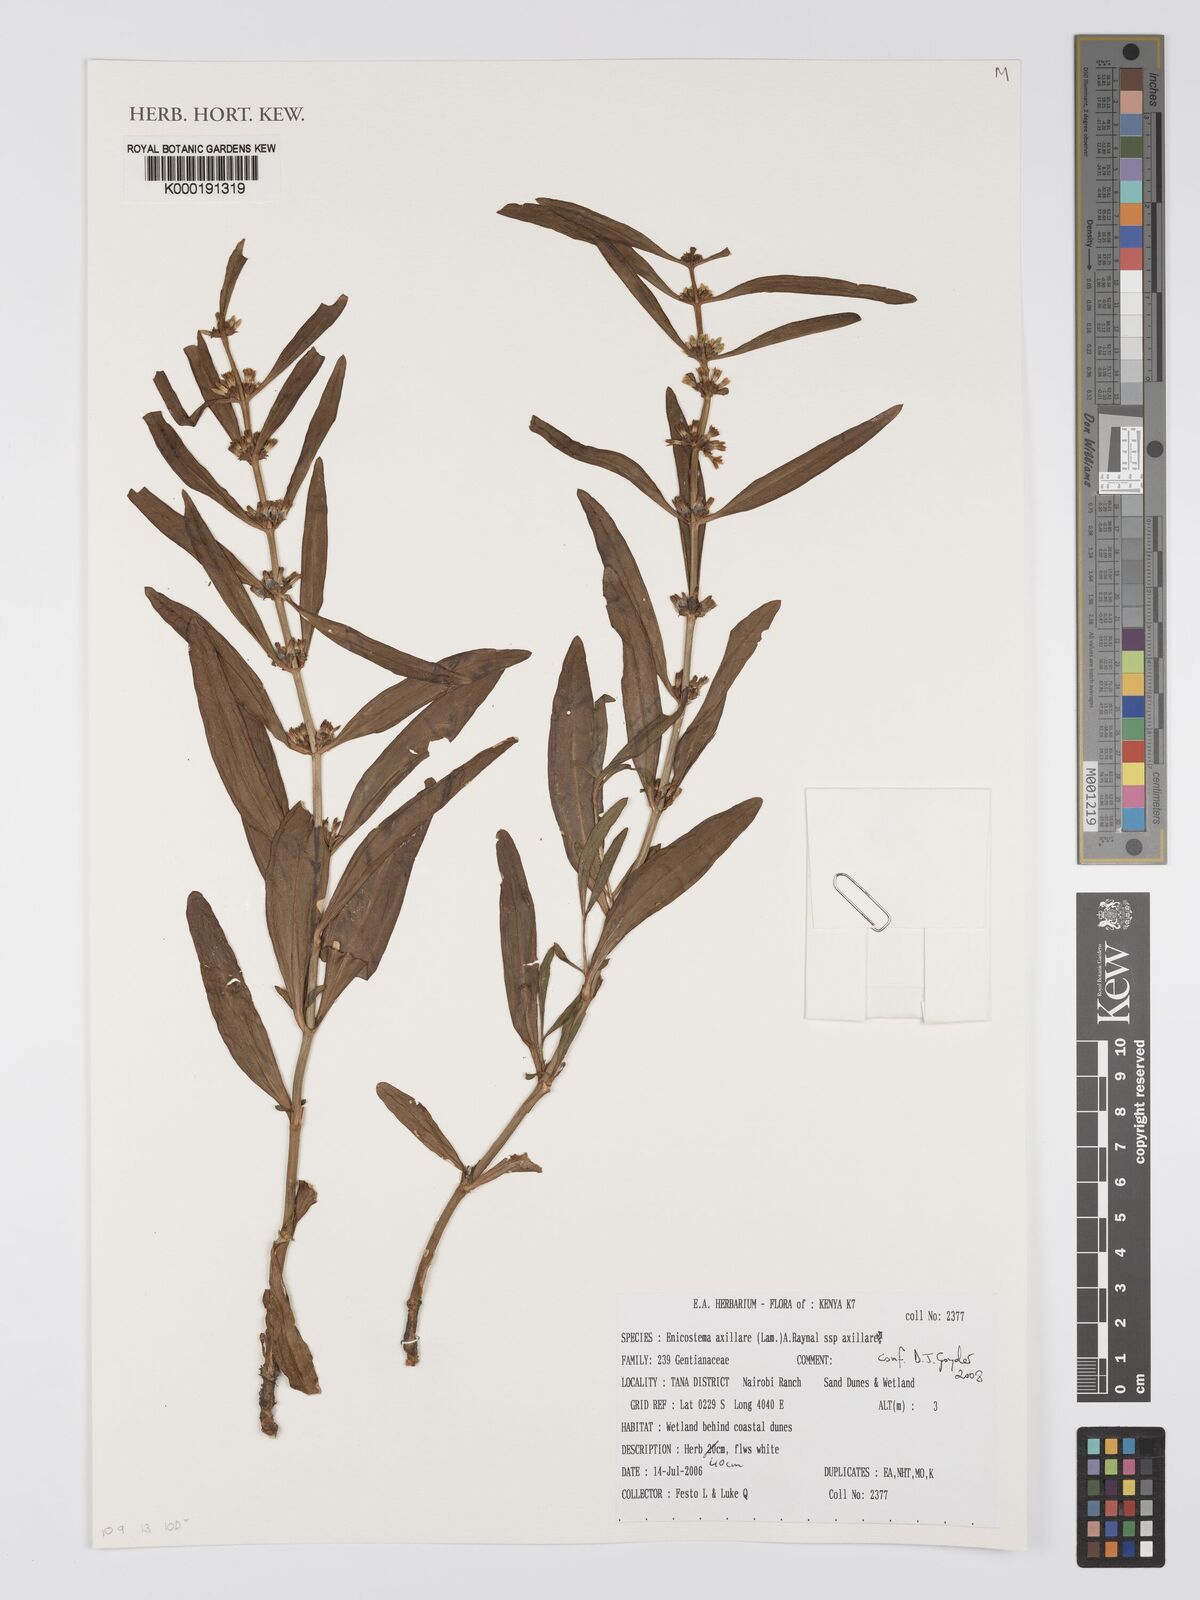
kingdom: Plantae
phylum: Tracheophyta
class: Magnoliopsida
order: Gentianales
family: Gentianaceae
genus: Enicostema
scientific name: Enicostema axillare
